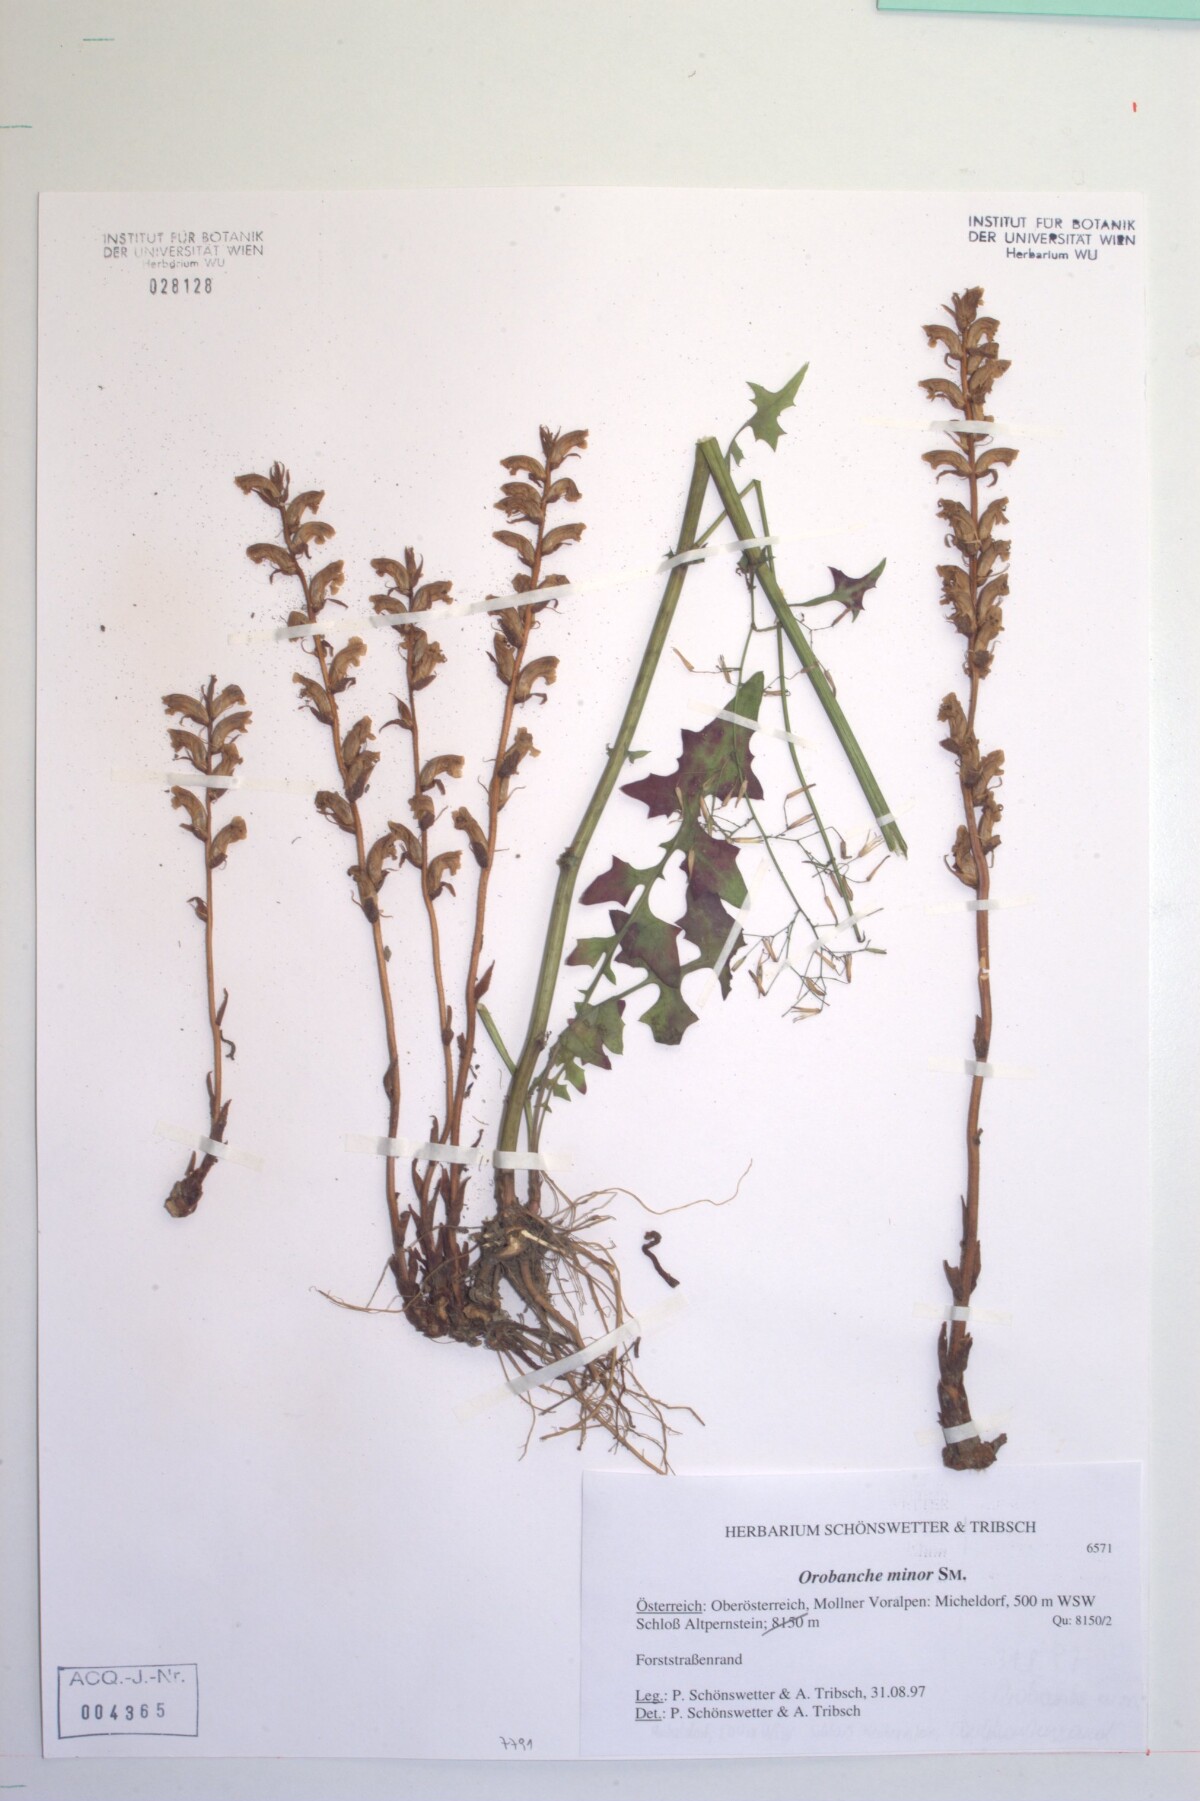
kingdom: Plantae
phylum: Tracheophyta
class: Magnoliopsida
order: Lamiales
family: Orobanchaceae
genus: Orobanche
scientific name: Orobanche minor
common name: Common broomrape
